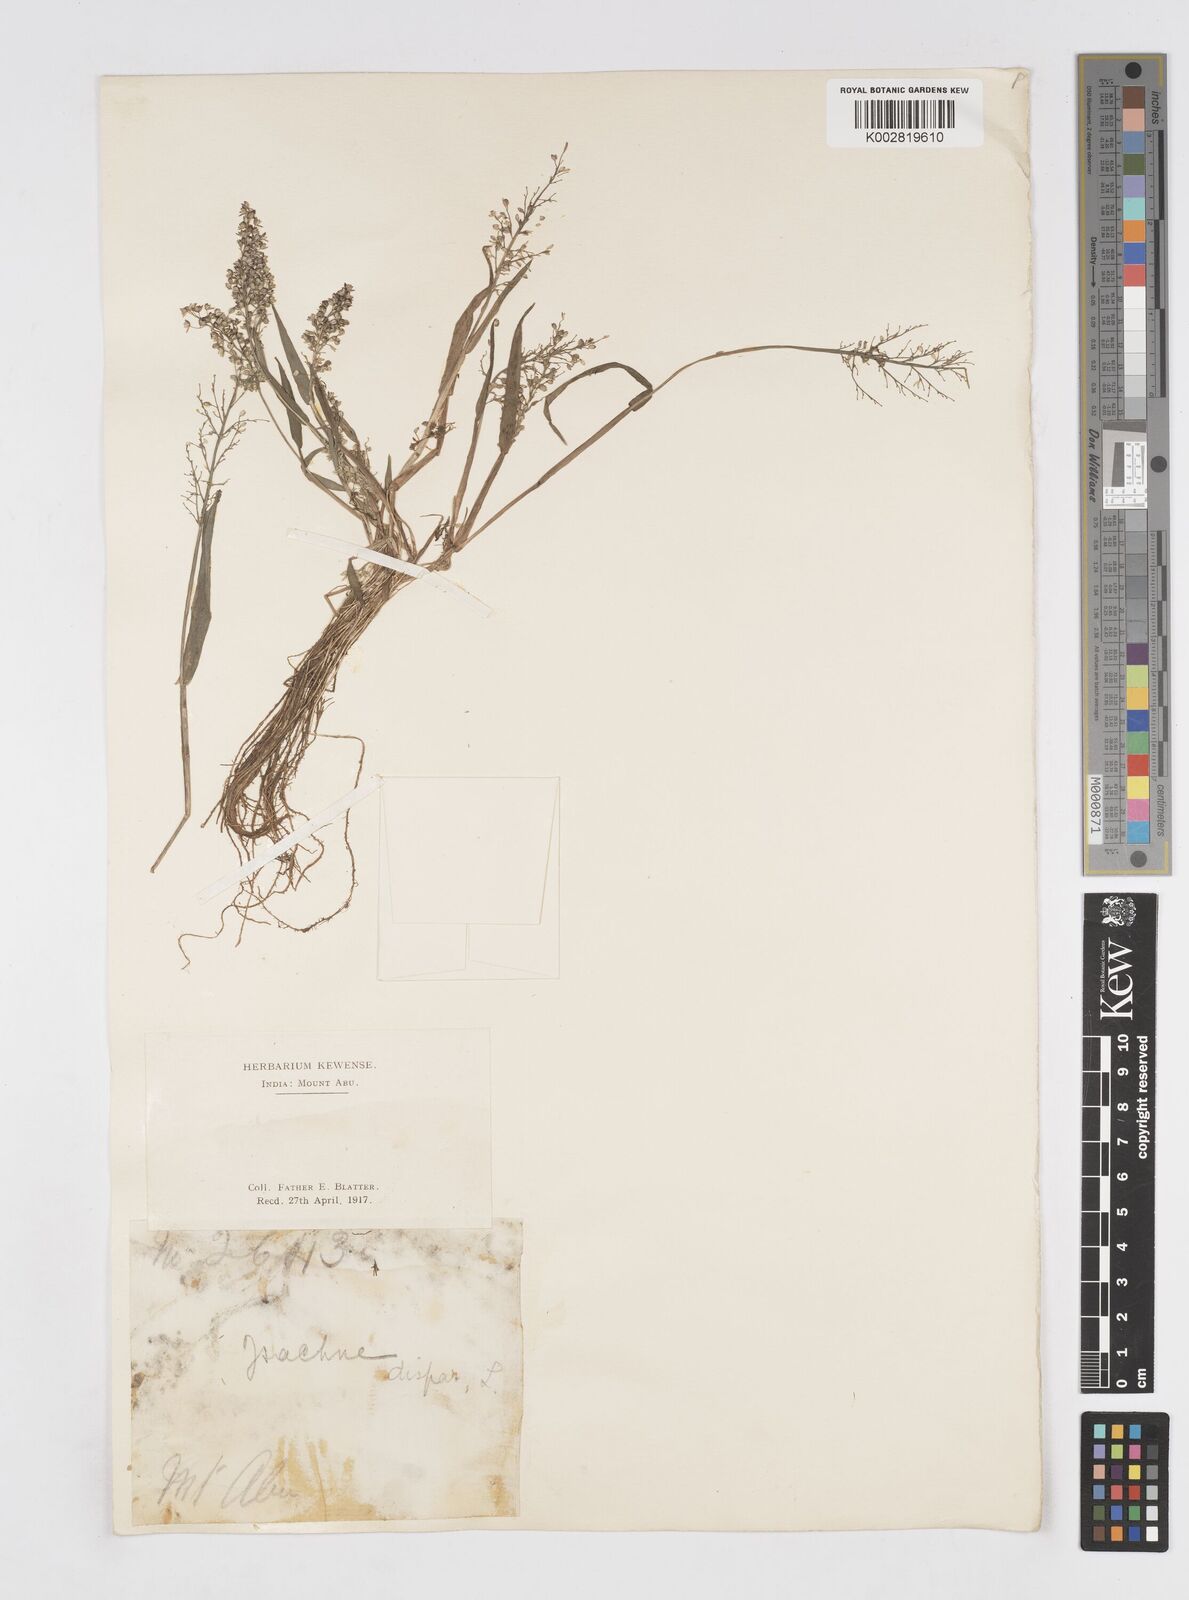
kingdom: Plantae
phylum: Tracheophyta
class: Liliopsida
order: Poales
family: Poaceae
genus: Isachne
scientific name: Isachne globosa
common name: Swamp millet
